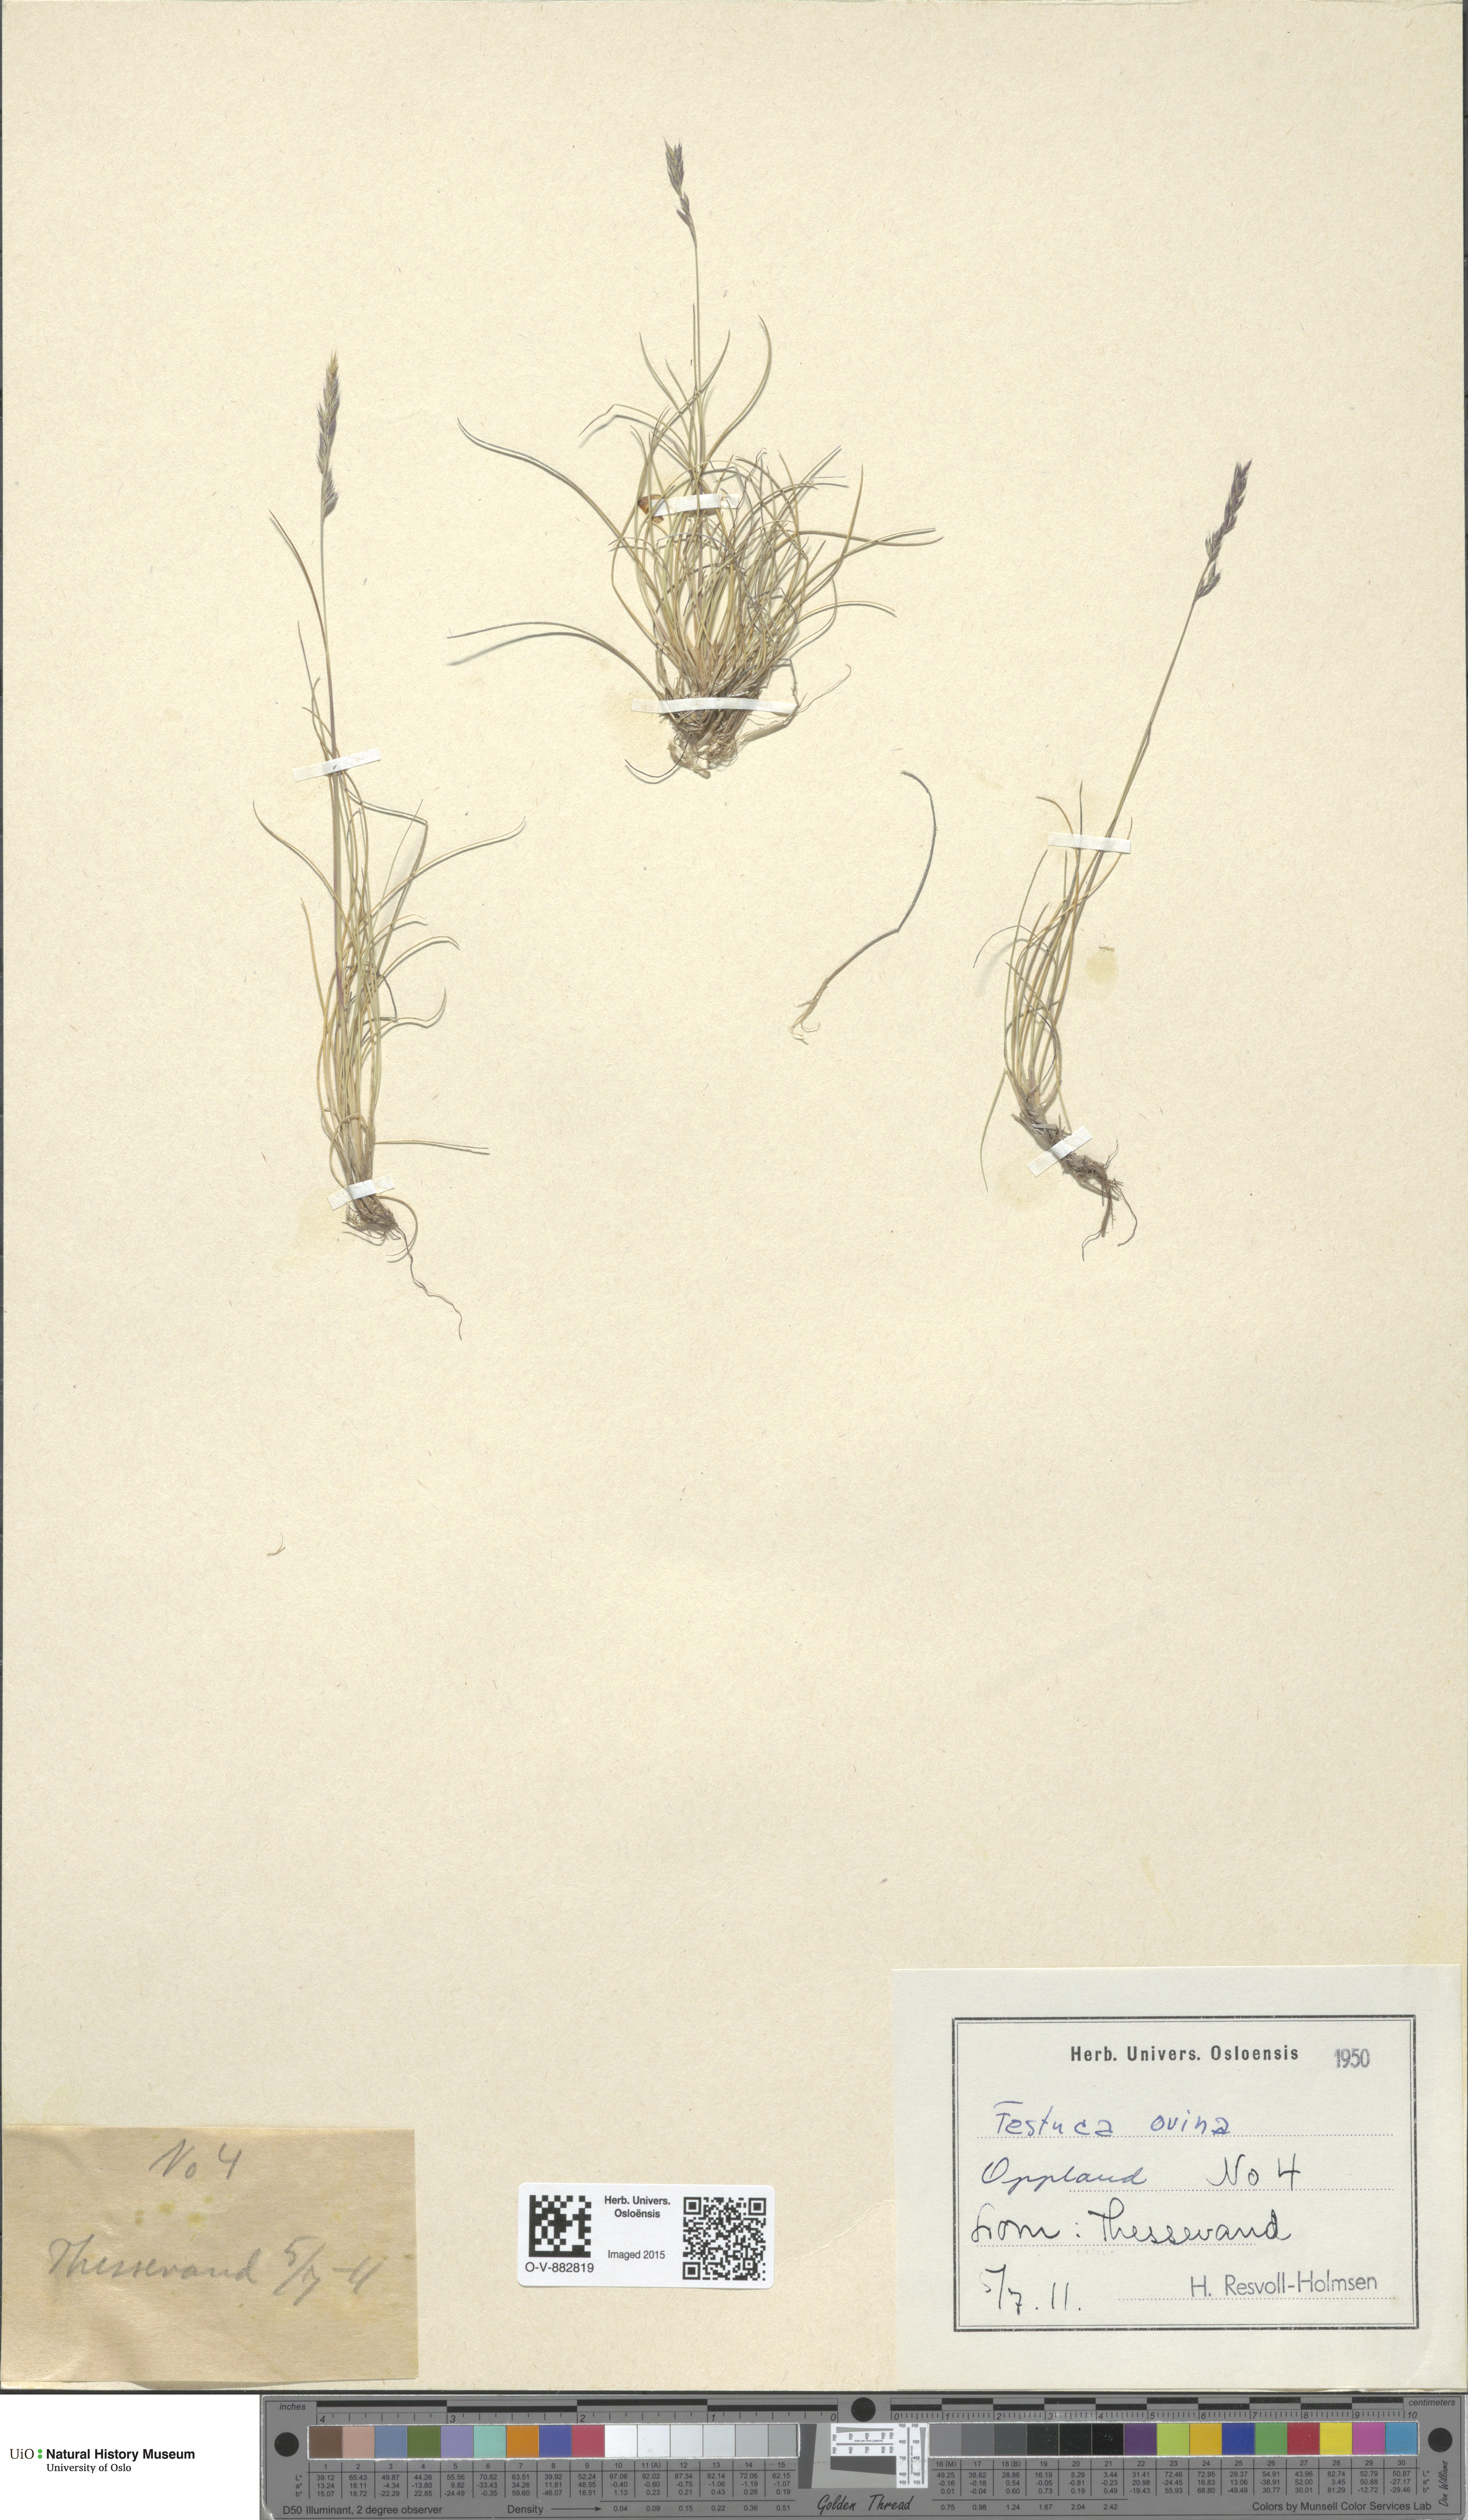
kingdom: Plantae
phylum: Tracheophyta
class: Liliopsida
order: Poales
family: Poaceae
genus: Festuca
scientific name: Festuca ovina
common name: Sheep fescue
